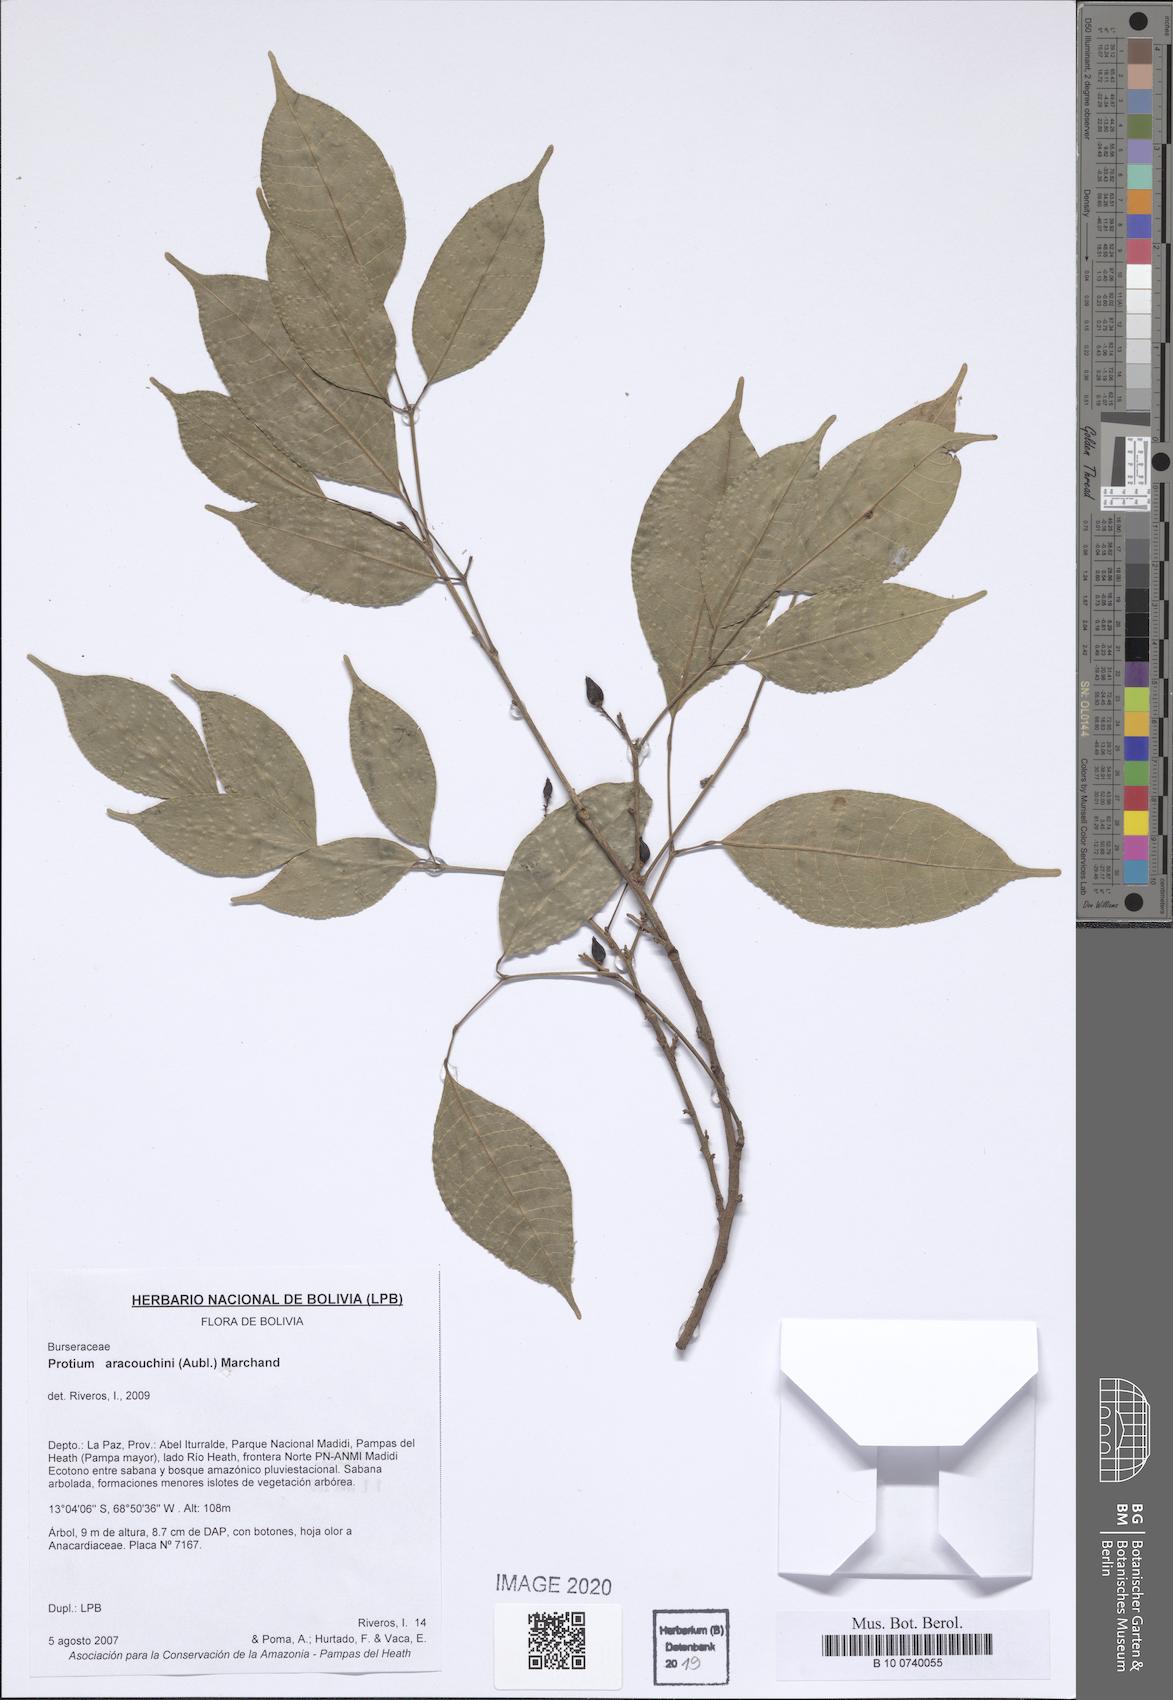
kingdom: Plantae
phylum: Tracheophyta
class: Magnoliopsida
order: Sapindales
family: Burseraceae
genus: Protium
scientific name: Protium aracouchini
